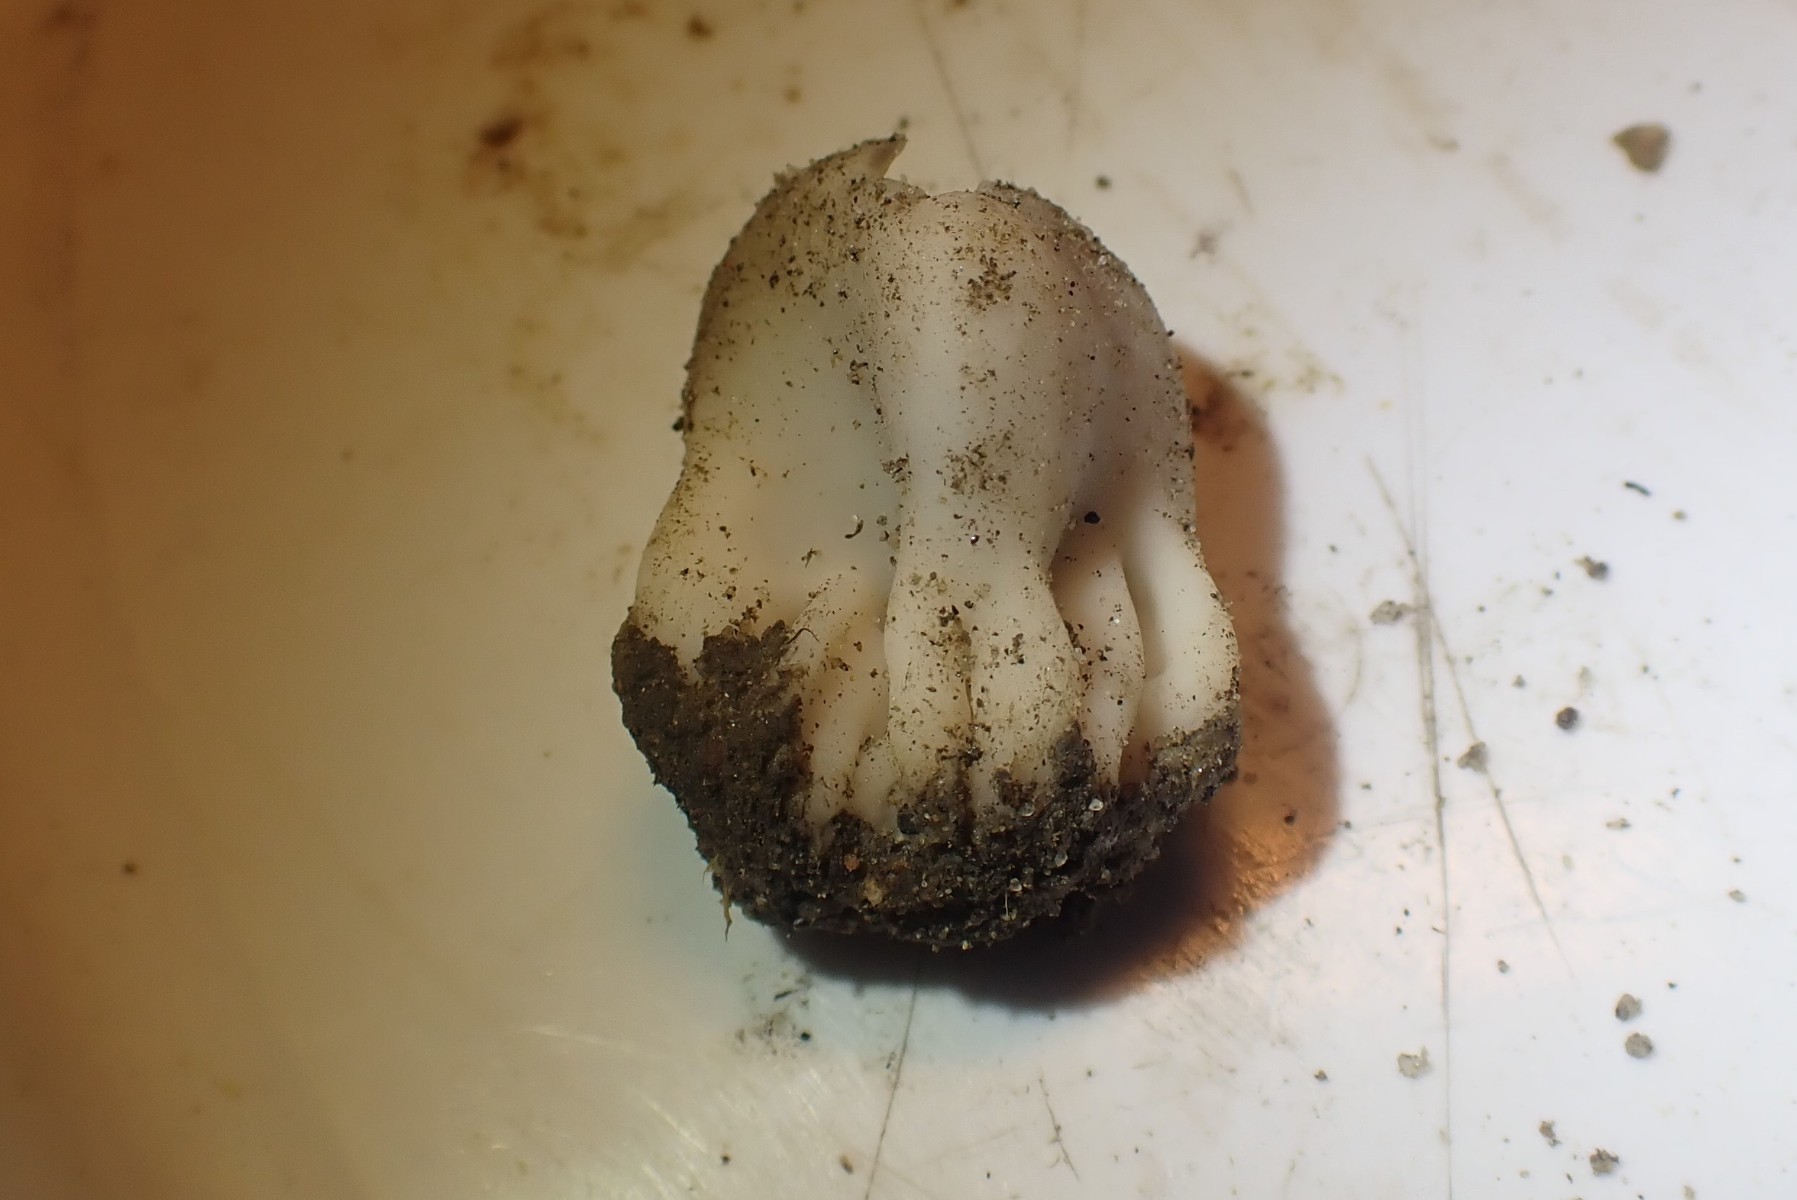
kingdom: Fungi
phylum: Ascomycota
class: Pezizomycetes
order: Pezizales
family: Helvellaceae
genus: Dissingia
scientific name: Dissingia leucomelaena
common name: sorthvid foldhat
